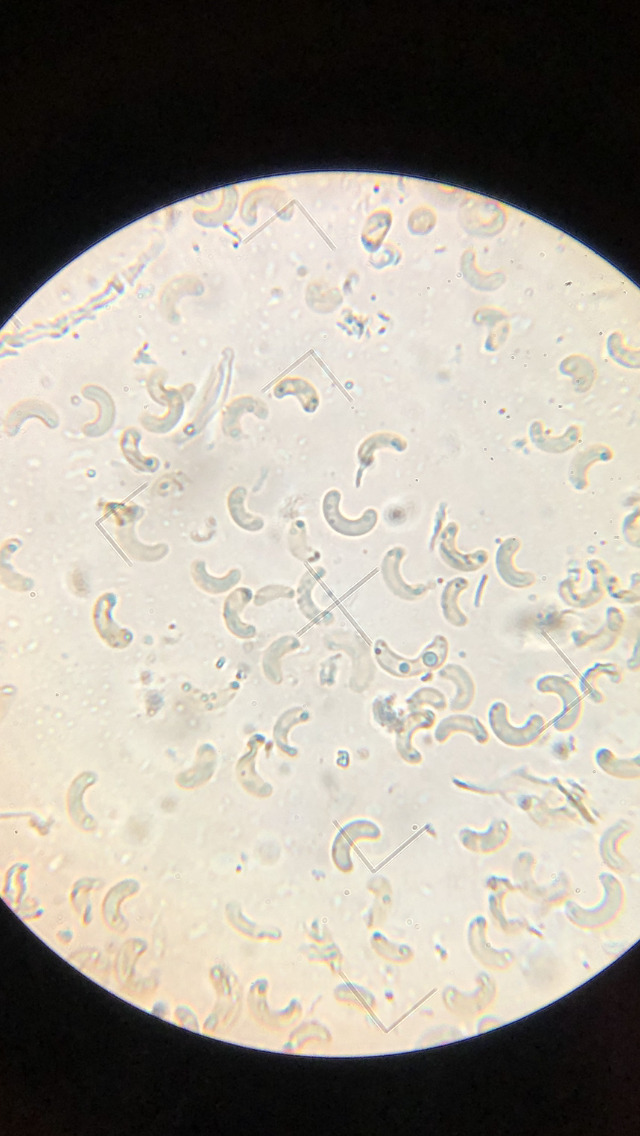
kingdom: Fungi
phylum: Ascomycota
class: Sordariomycetes
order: Xylariales
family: Diatrypaceae
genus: Diatrypella
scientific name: Diatrypella quercina
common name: ege-kulskorpe
